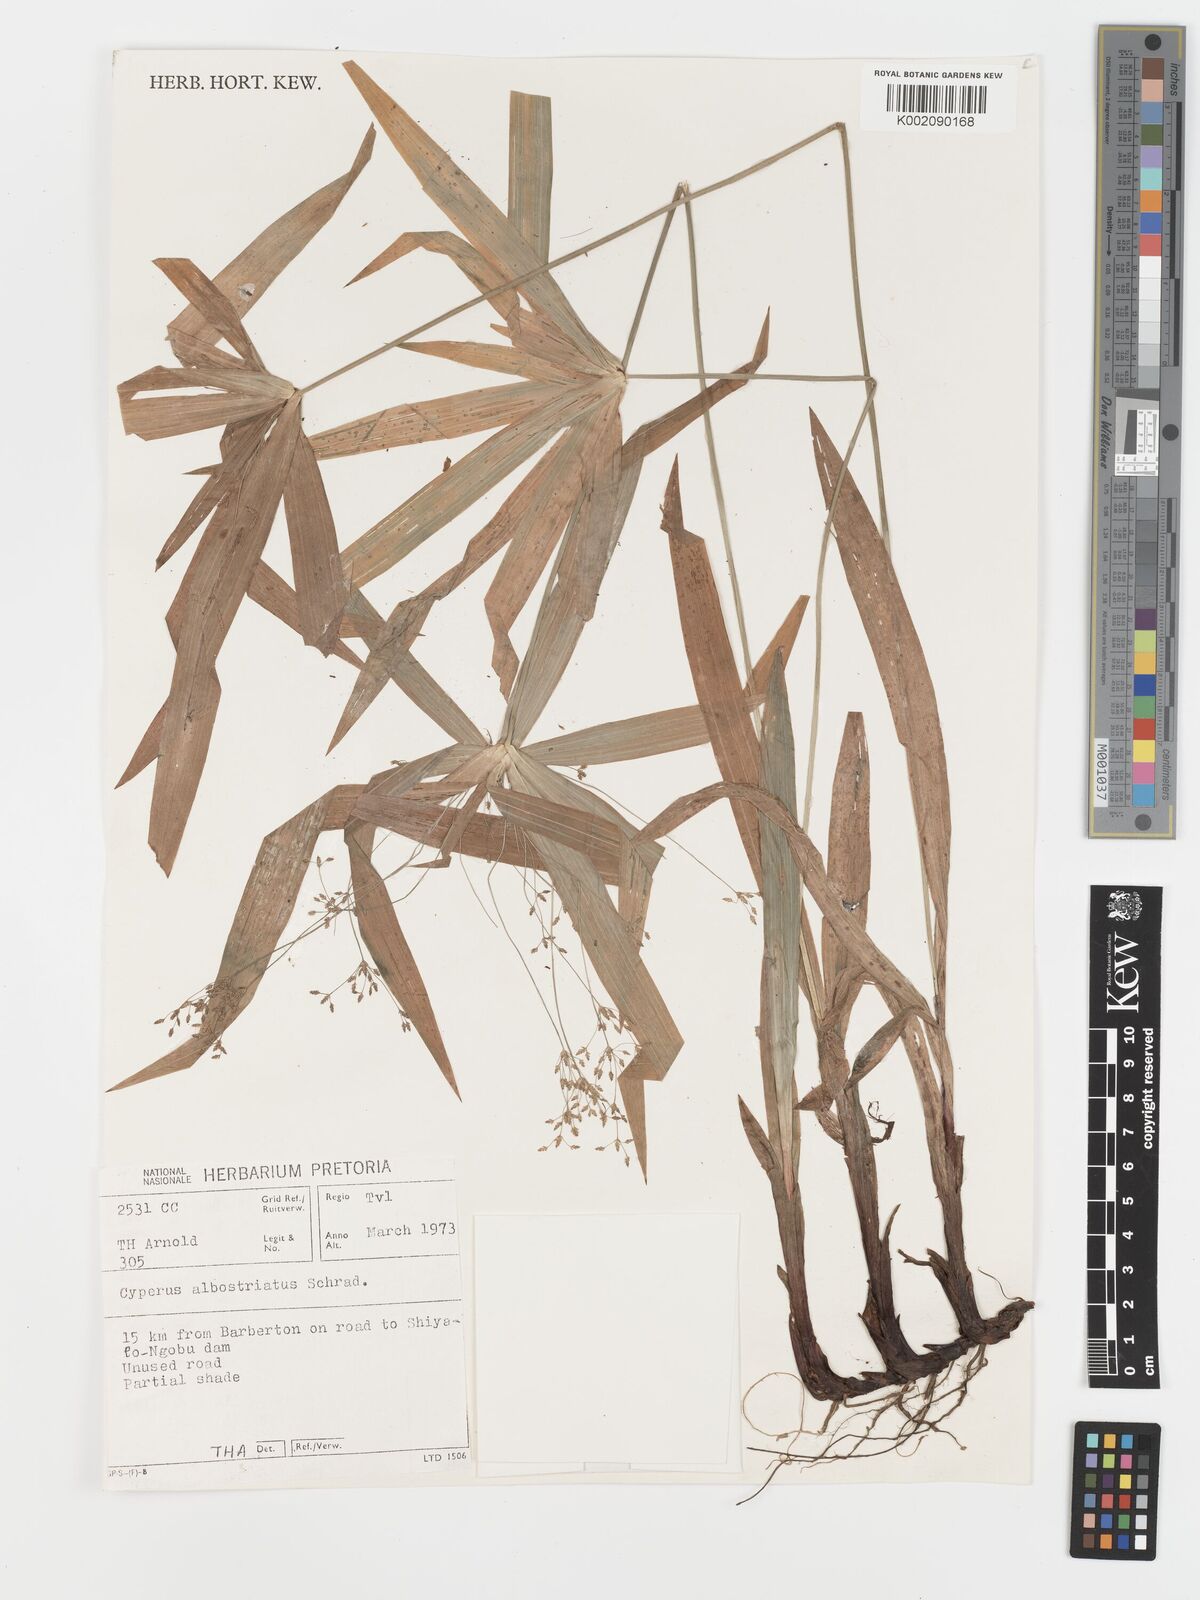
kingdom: Plantae
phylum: Tracheophyta
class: Liliopsida
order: Poales
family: Cyperaceae
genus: Cyperus
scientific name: Cyperus albostriatus
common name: Dwarf umbrella-grass
